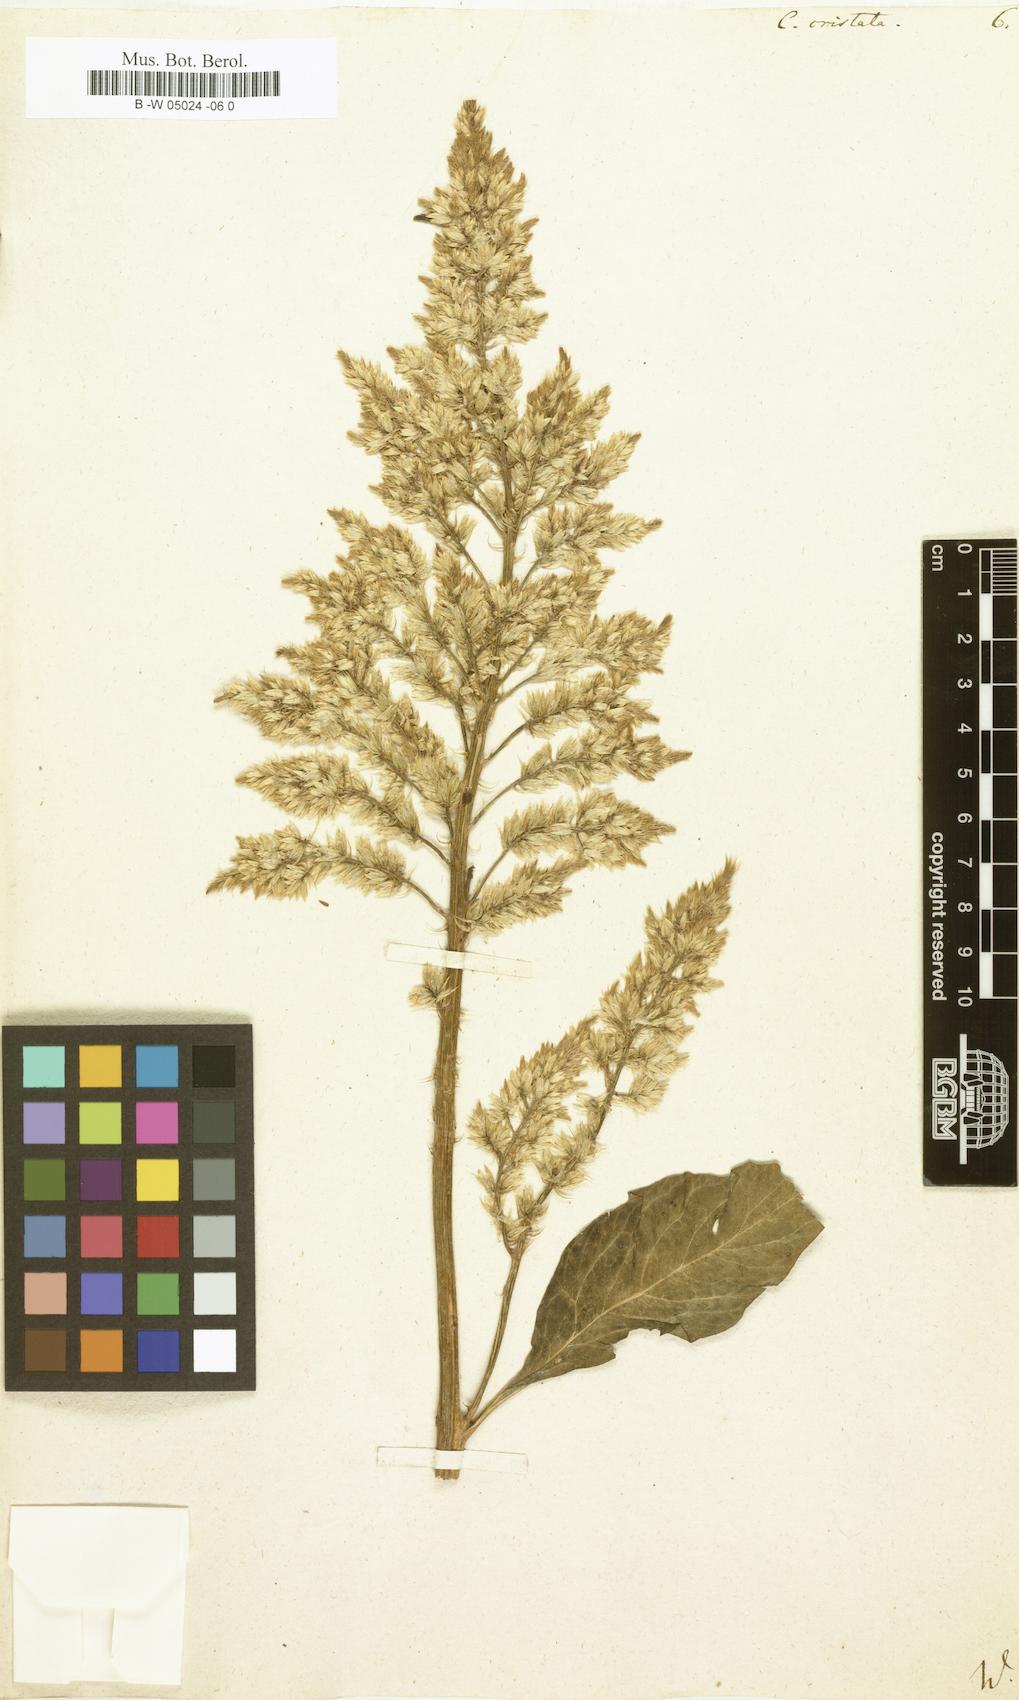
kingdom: Plantae
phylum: Tracheophyta
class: Magnoliopsida
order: Caryophyllales
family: Amaranthaceae
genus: Celosia
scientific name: Celosia argentea
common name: Feather cockscomb
